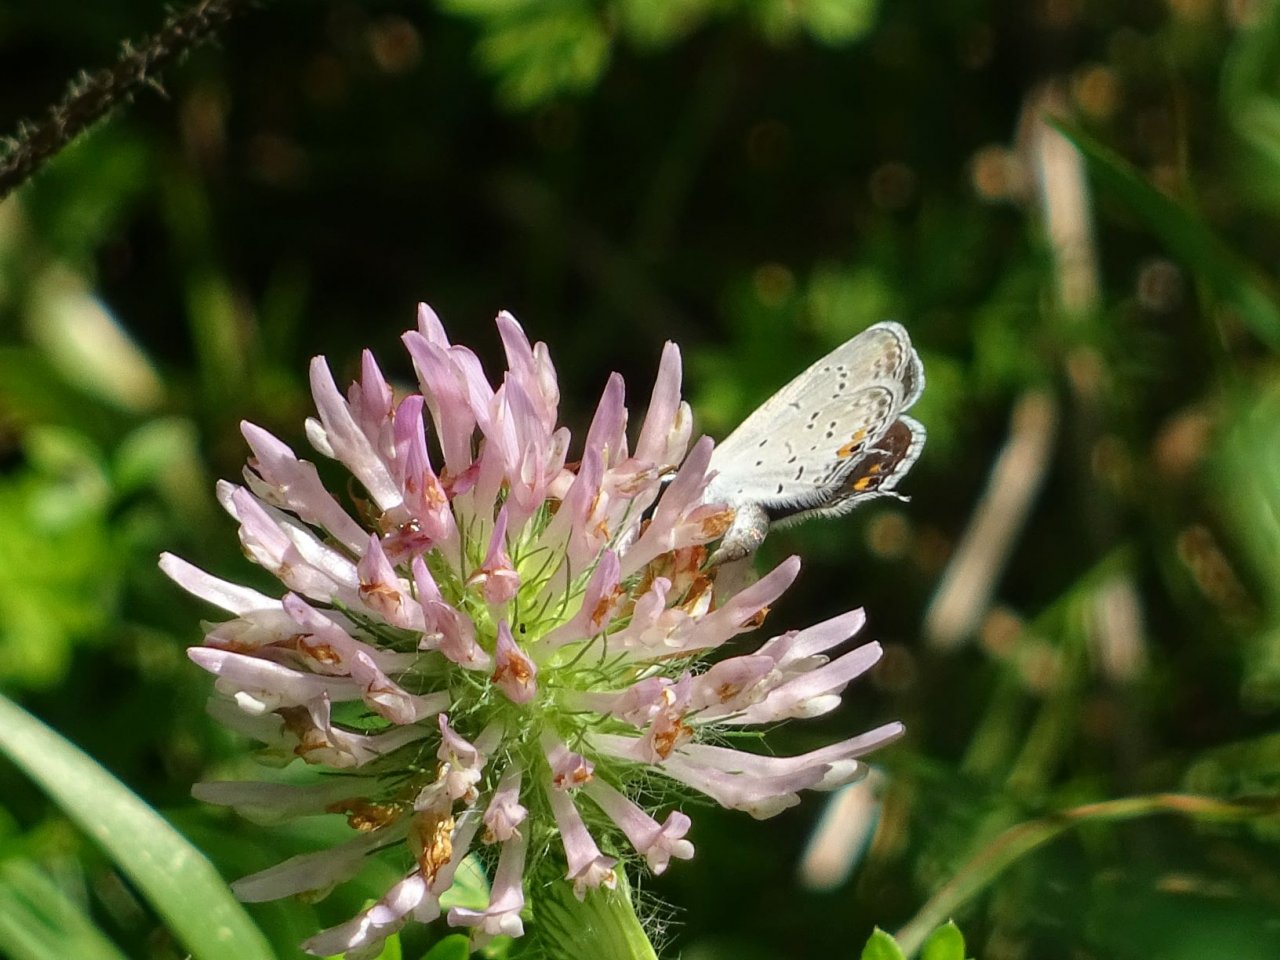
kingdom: Animalia
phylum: Arthropoda
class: Insecta
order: Lepidoptera
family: Lycaenidae
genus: Elkalyce
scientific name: Elkalyce comyntas
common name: Eastern Tailed-Blue
